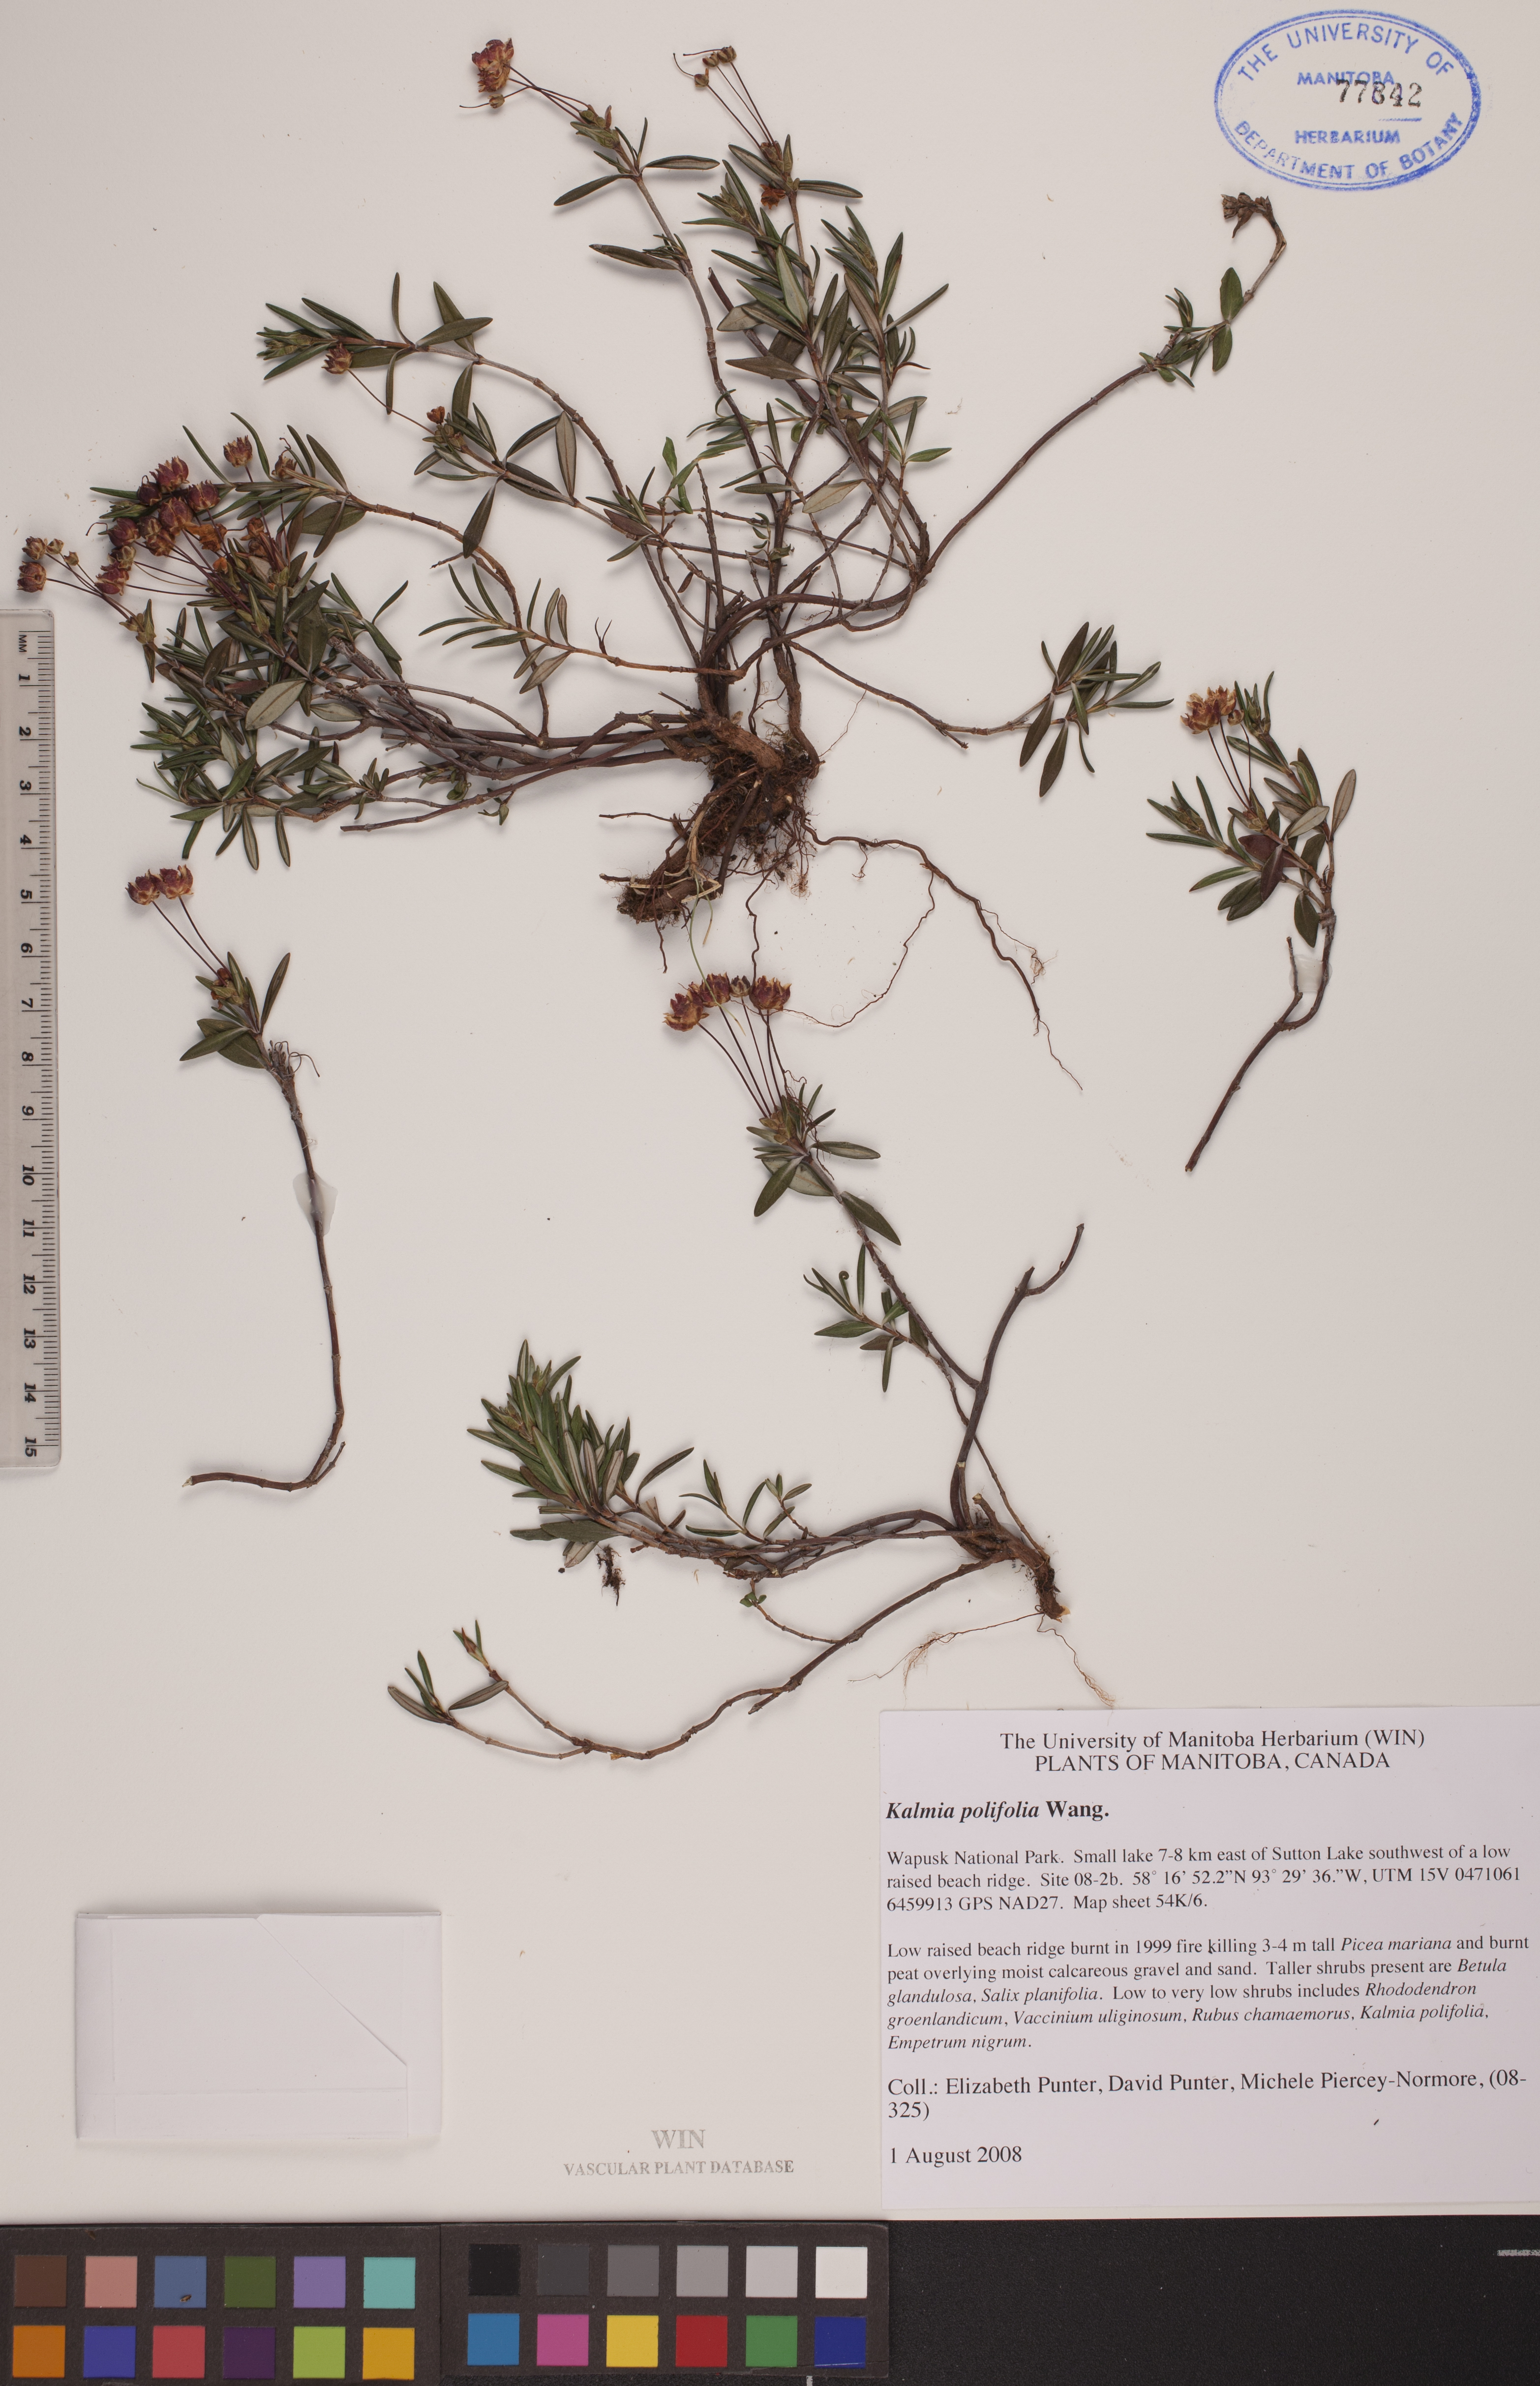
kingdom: Plantae
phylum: Tracheophyta
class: Magnoliopsida
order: Ericales
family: Ericaceae
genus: Kalmia
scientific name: Kalmia polifolia
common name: Bog-laurel
